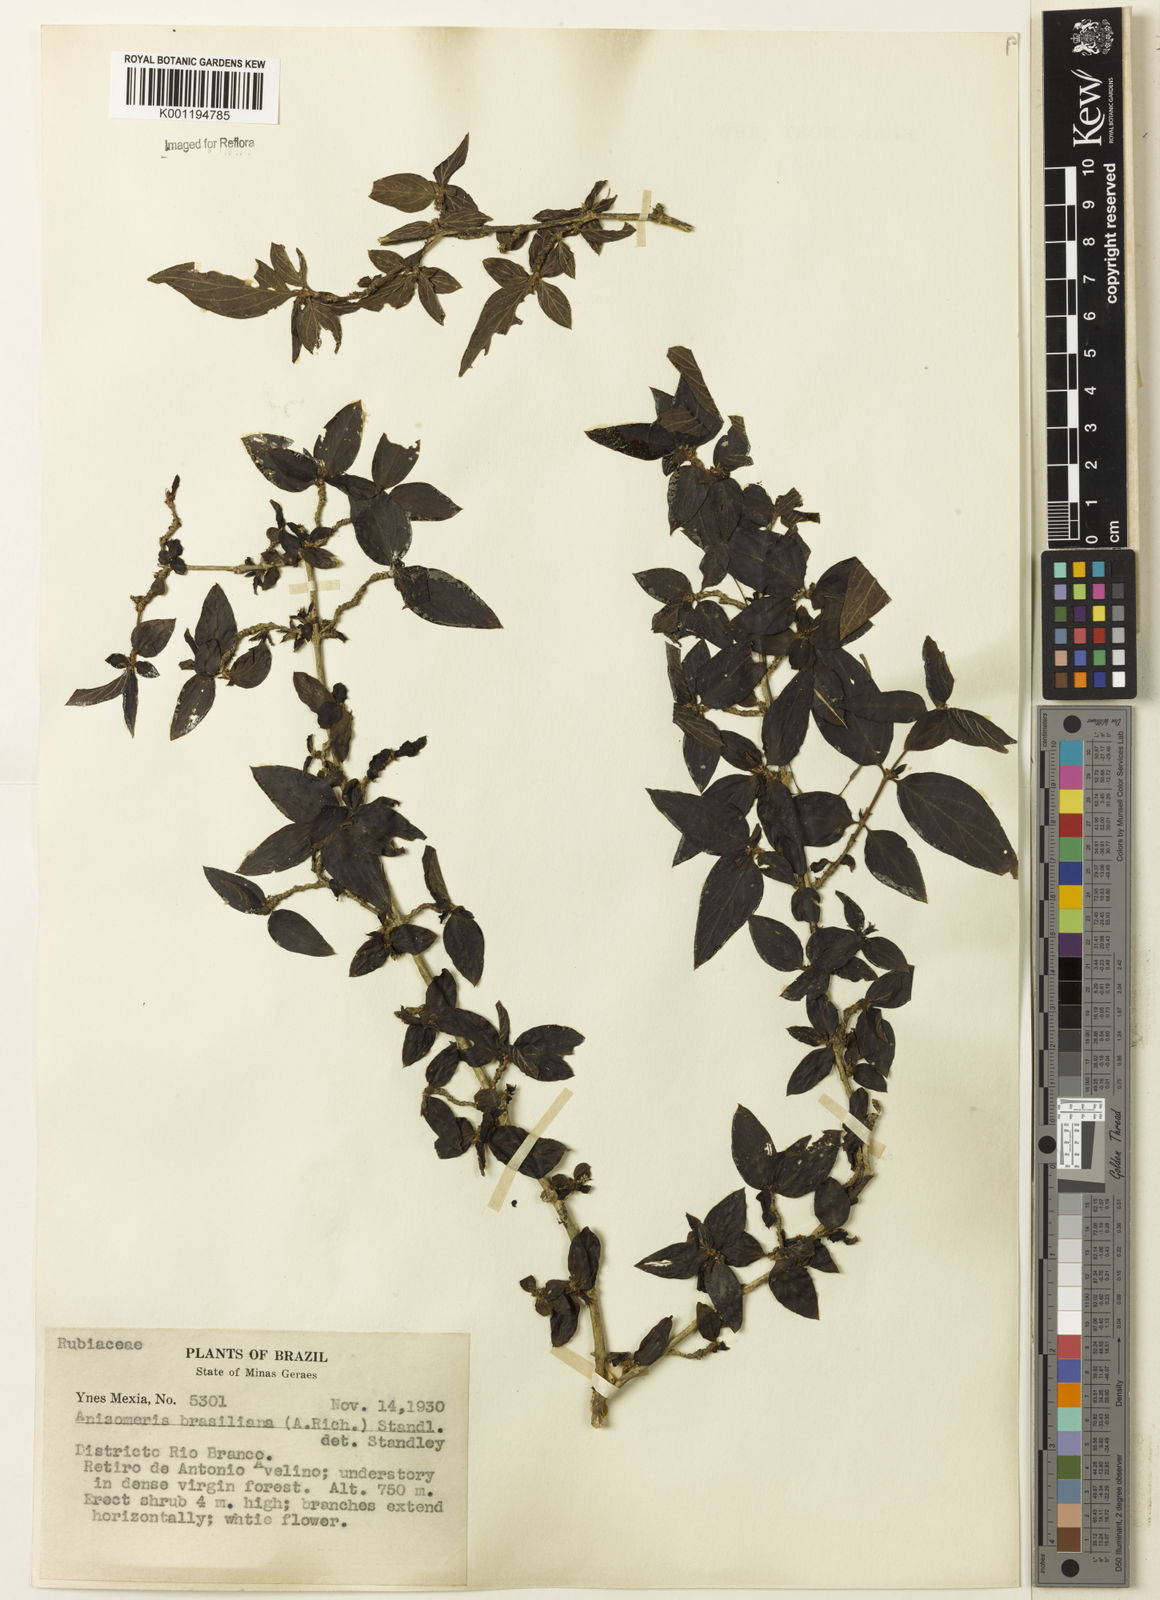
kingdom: Plantae
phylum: Tracheophyta
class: Magnoliopsida
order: Gentianales
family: Rubiaceae
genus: Chomelia
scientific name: Chomelia brasiliana
